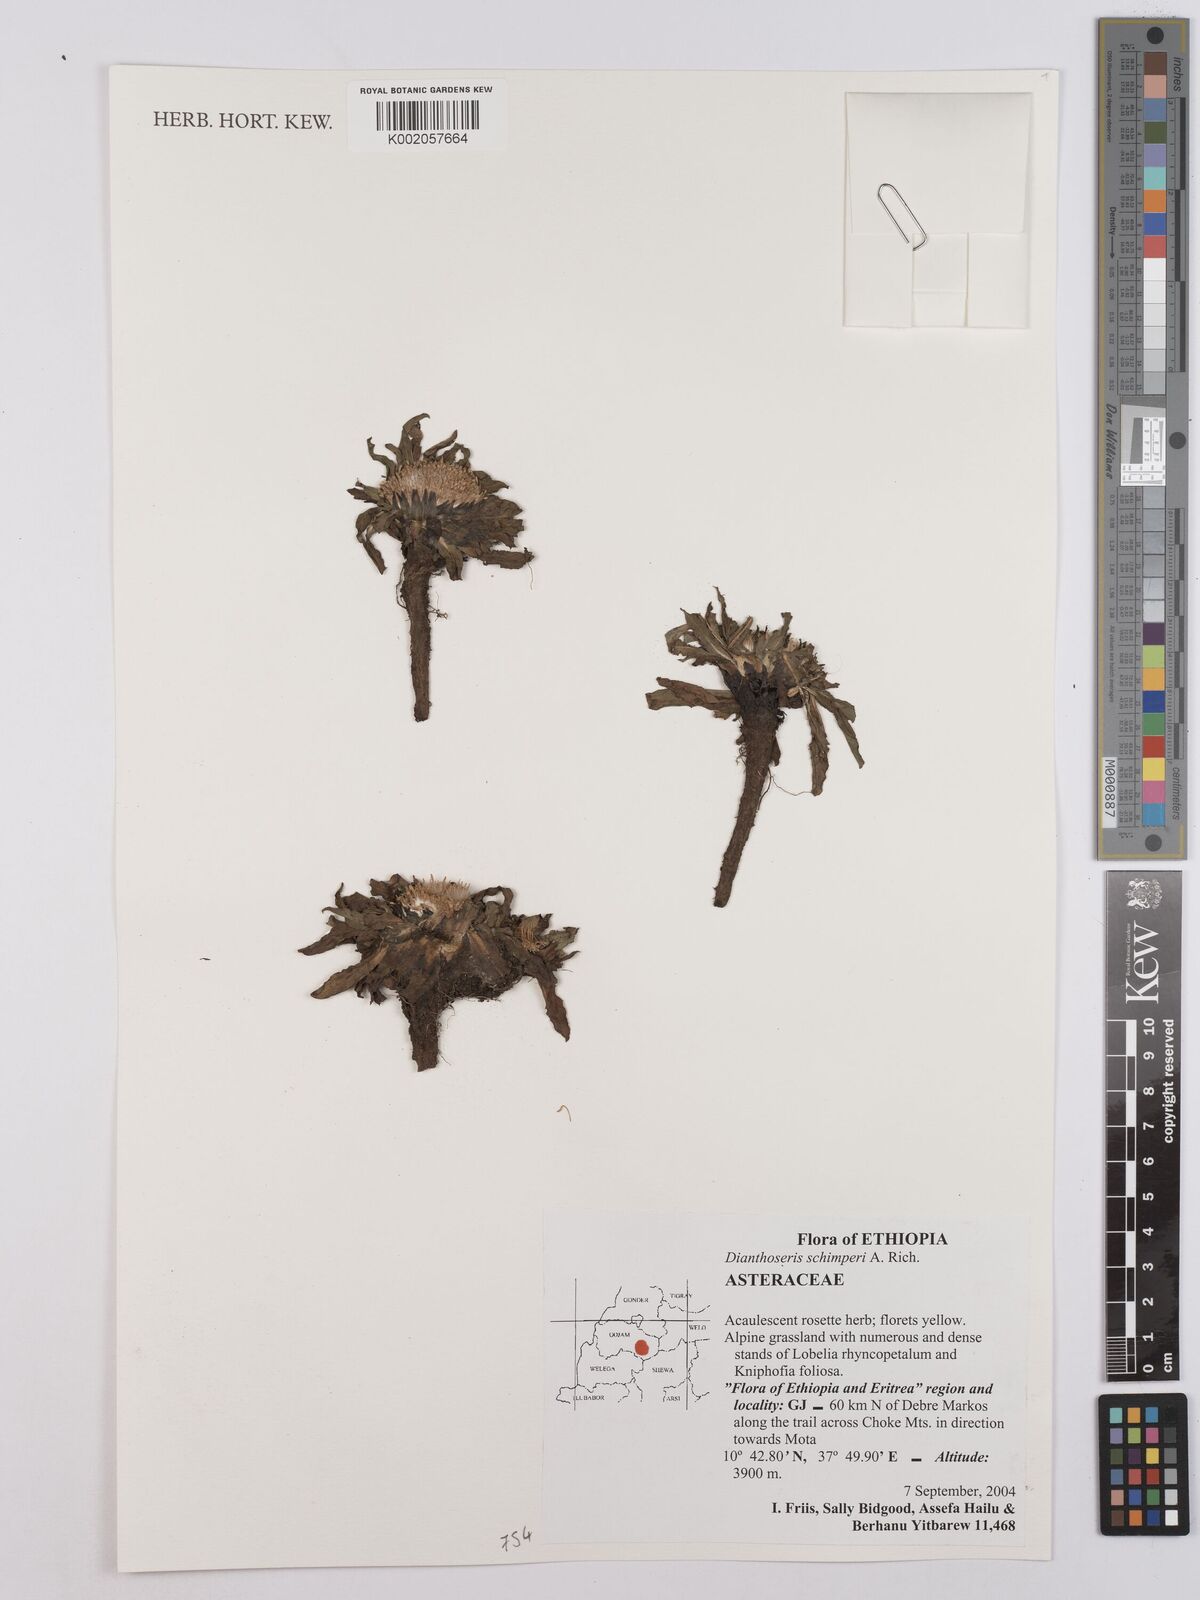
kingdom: Plantae
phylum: Tracheophyta
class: Magnoliopsida
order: Asterales
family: Asteraceae
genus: Crepis
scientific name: Crepis foetida
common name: Stinking hawk's-beard
